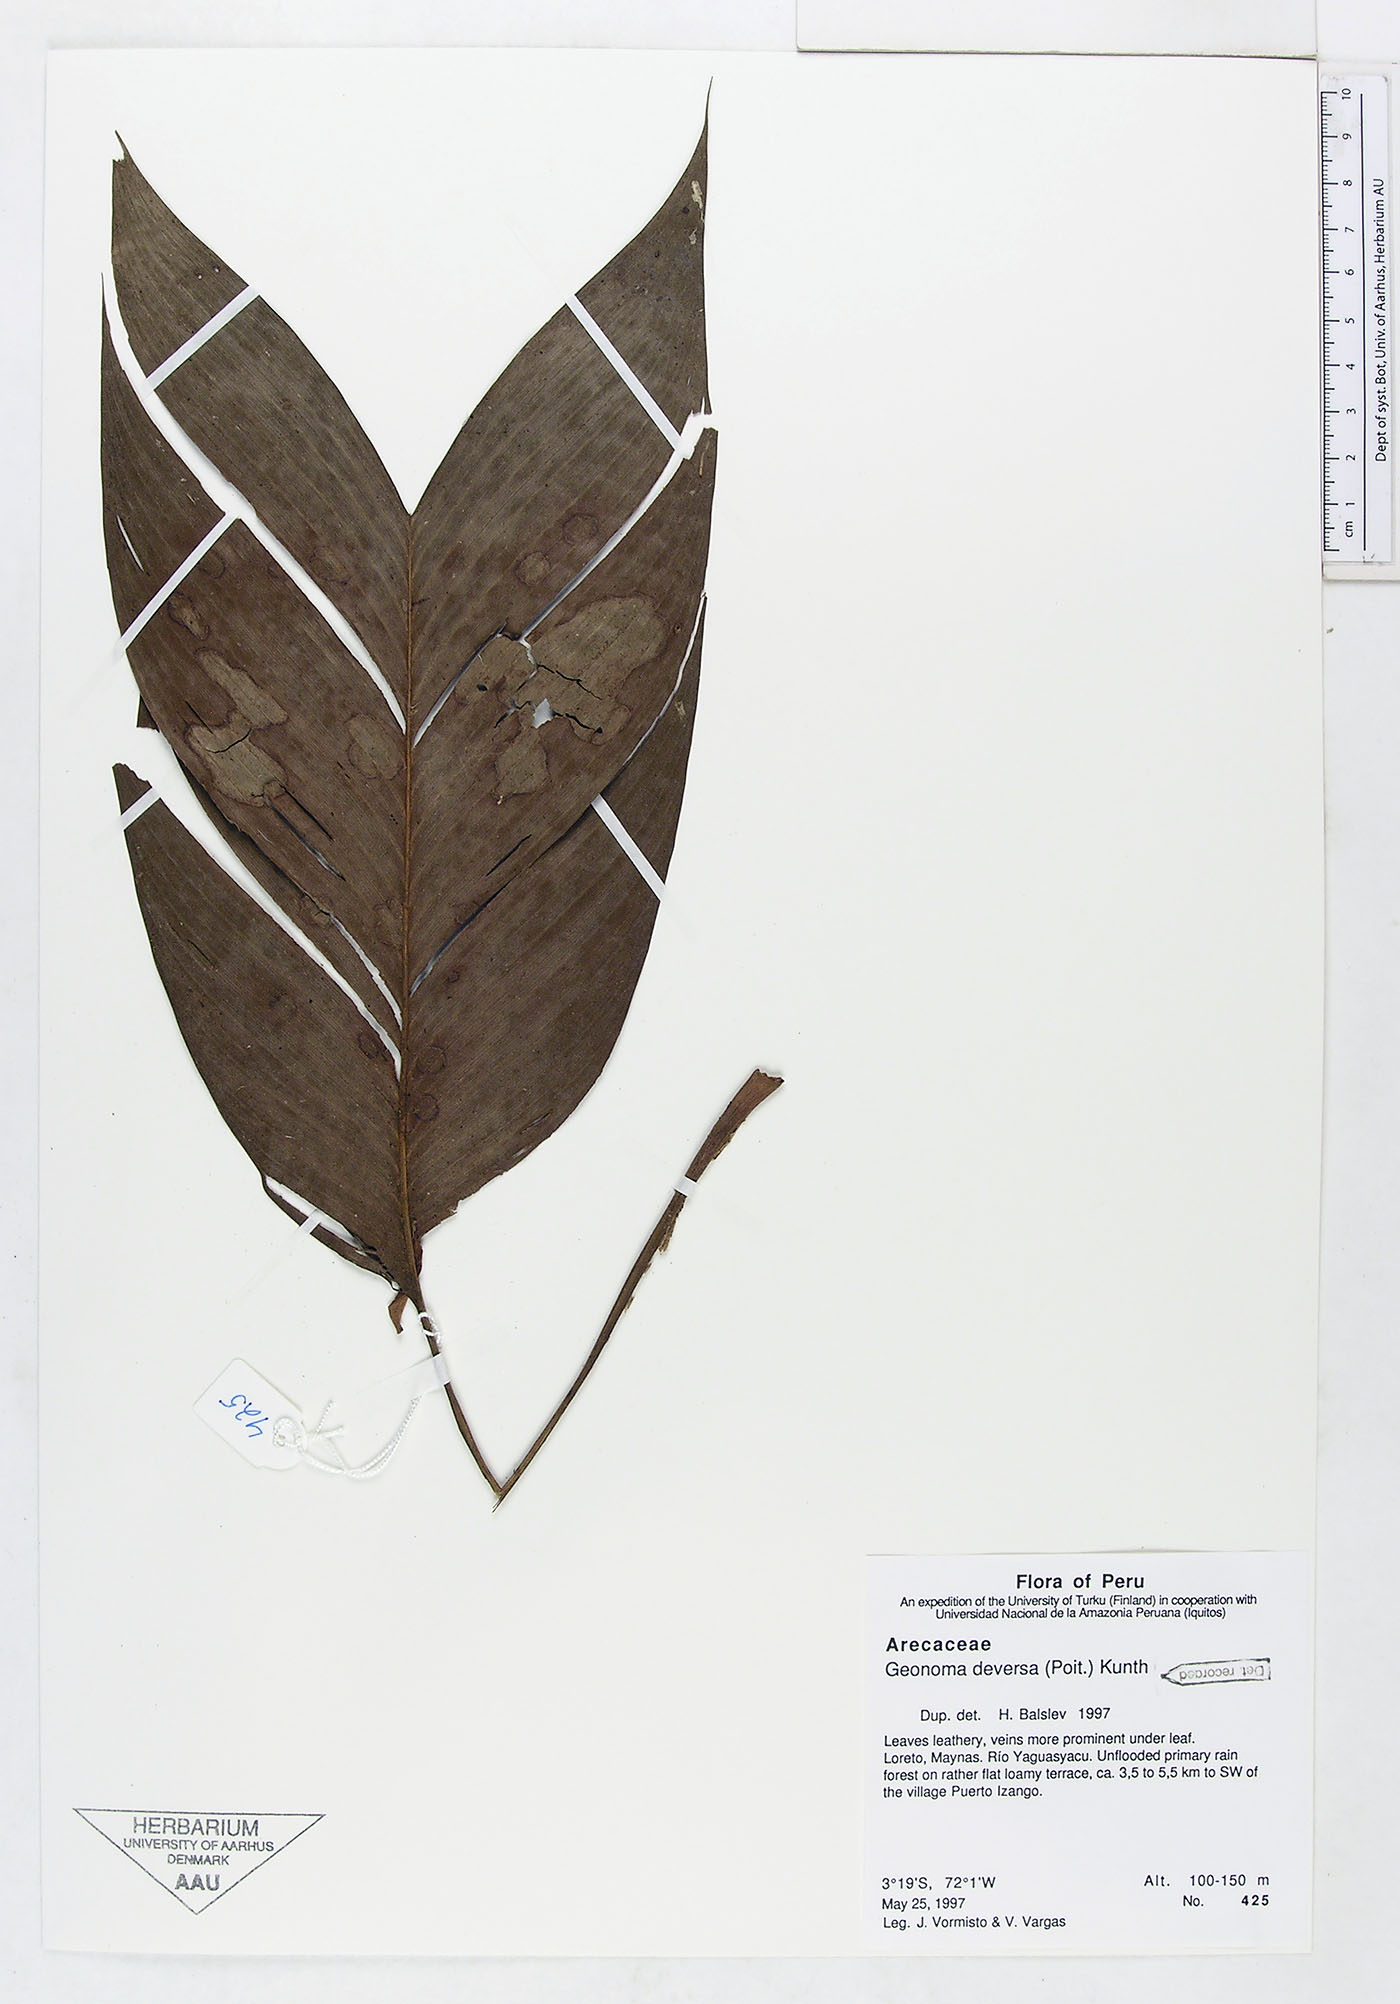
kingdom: Plantae
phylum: Tracheophyta
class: Liliopsida
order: Arecales
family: Arecaceae
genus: Geonoma
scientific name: Geonoma deversa
